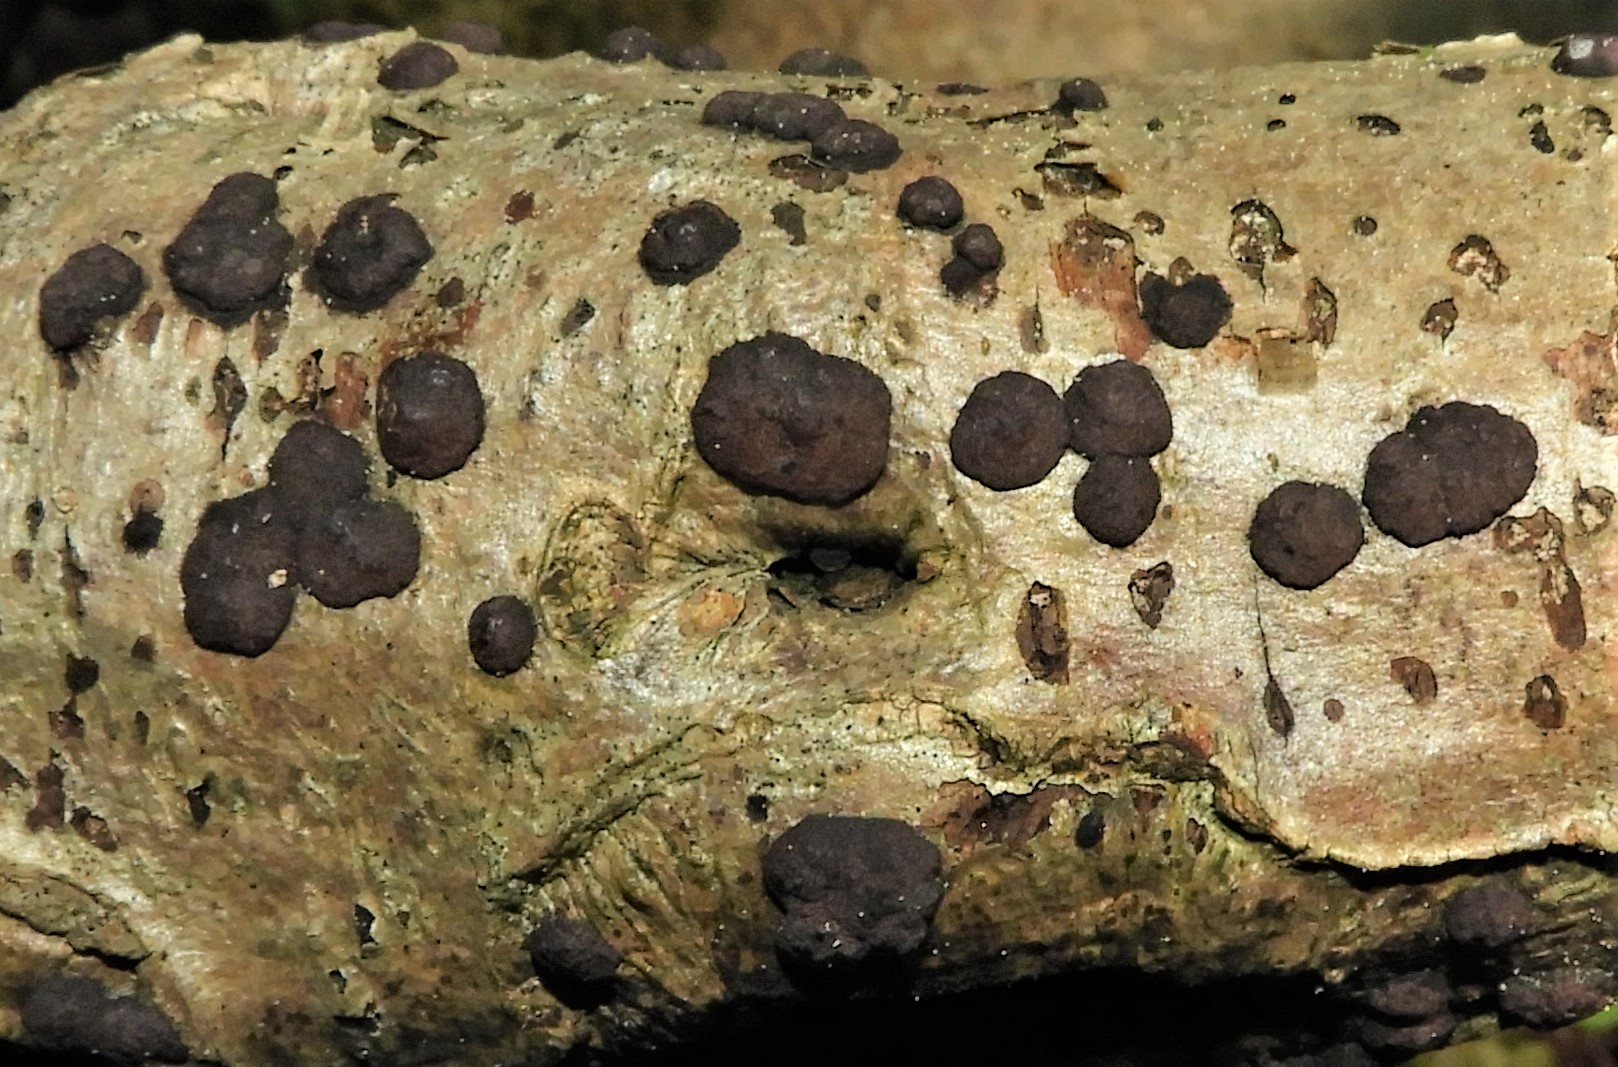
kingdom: Fungi
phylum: Ascomycota
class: Sordariomycetes
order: Xylariales
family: Hypoxylaceae
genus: Hypoxylon
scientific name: Hypoxylon fuscum
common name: kegleformet kulbær
